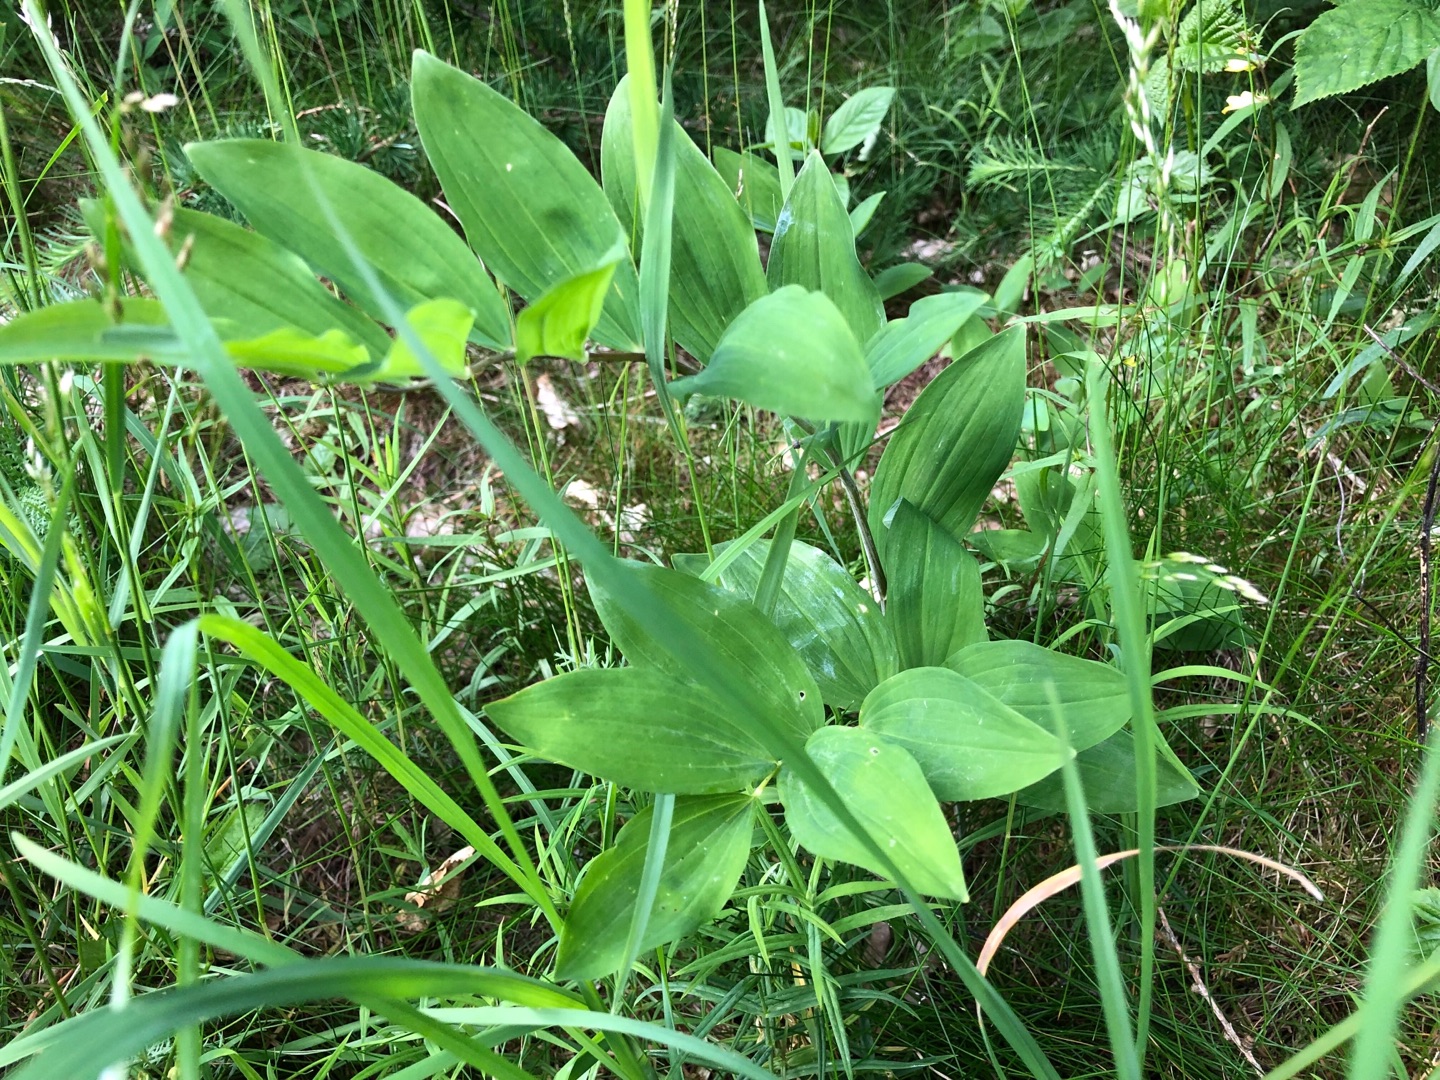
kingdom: Plantae
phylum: Tracheophyta
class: Liliopsida
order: Asparagales
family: Asparagaceae
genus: Polygonatum
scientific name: Polygonatum multiflorum
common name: Stor konval
